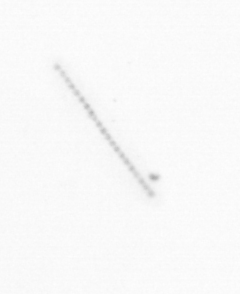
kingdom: Chromista
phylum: Ochrophyta
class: Bacillariophyceae
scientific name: Bacillariophyceae
